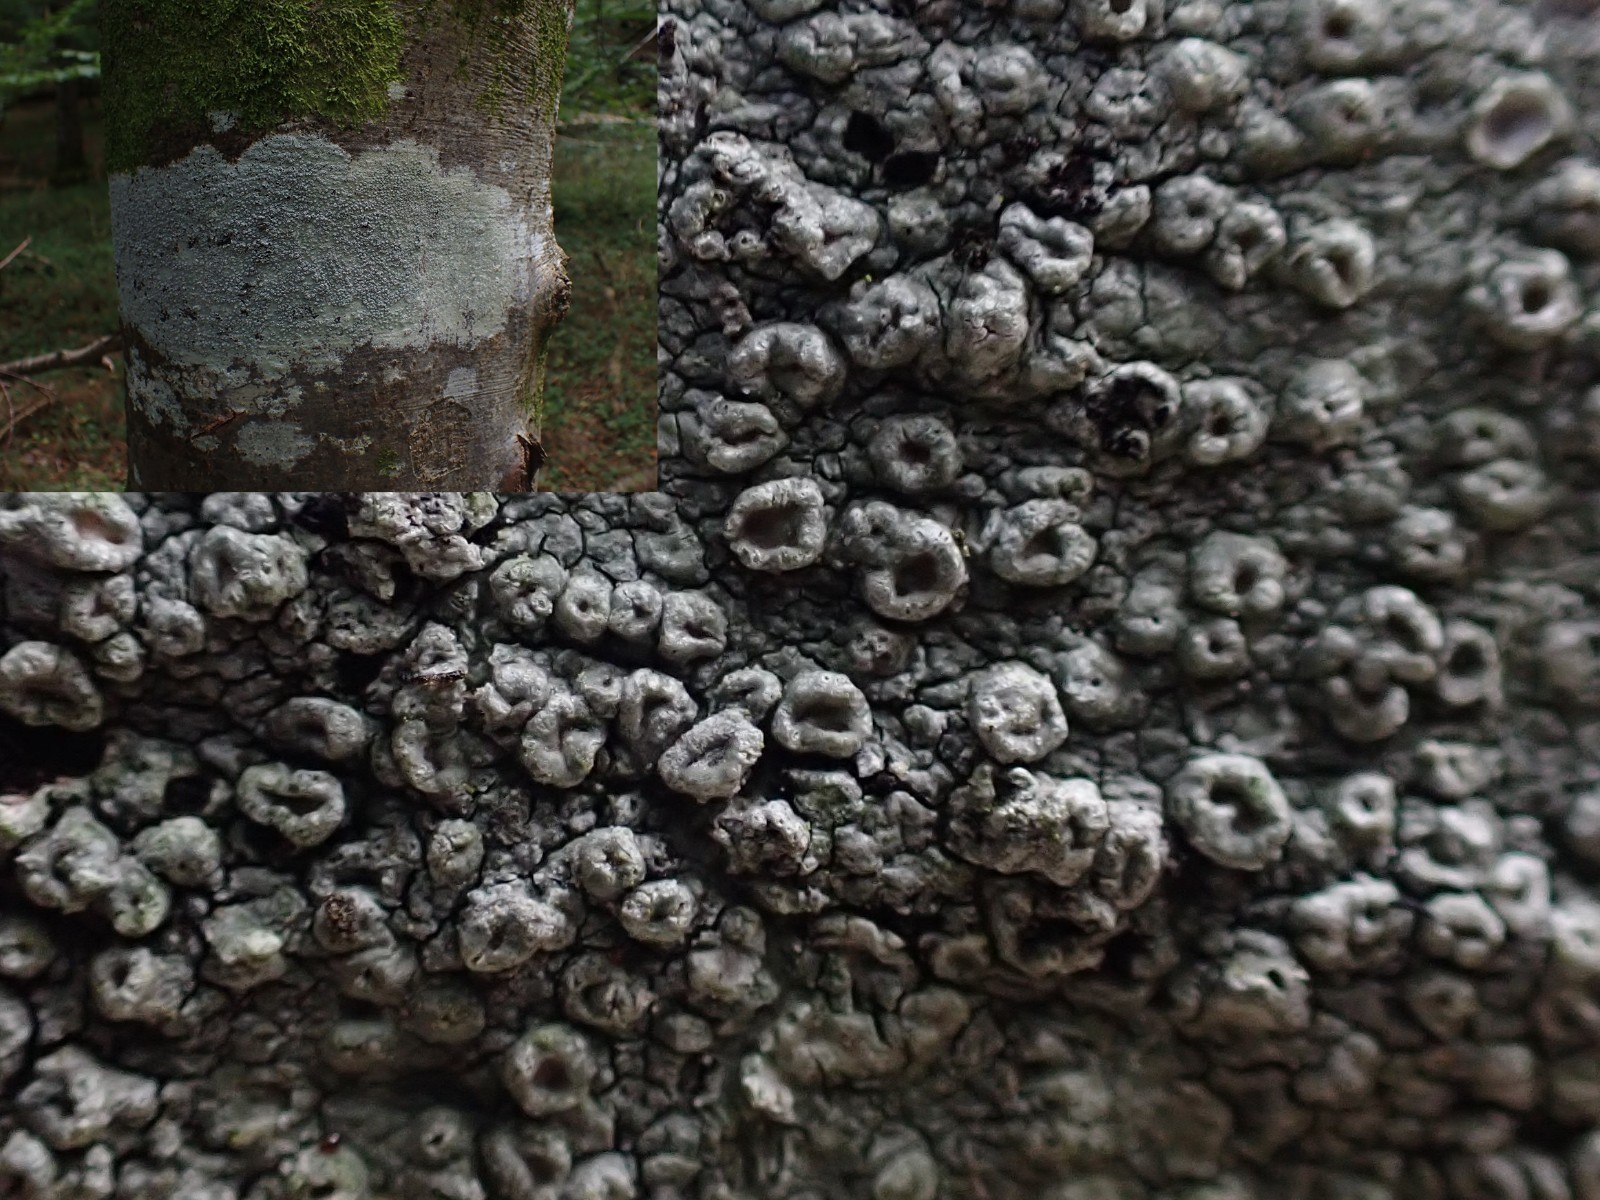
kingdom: Fungi
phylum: Ascomycota
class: Lecanoromycetes
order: Pertusariales
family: Pertusariaceae
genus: Pertusaria
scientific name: Pertusaria hymenea
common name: åben prikvortelav
